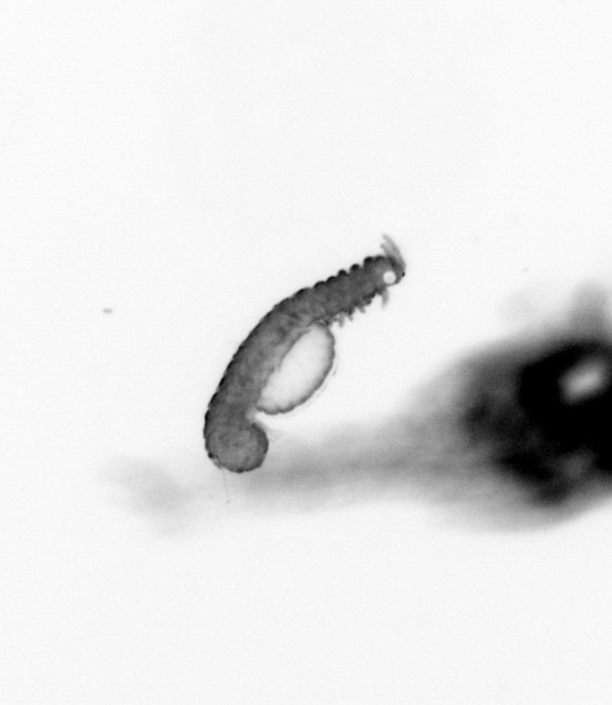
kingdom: Animalia
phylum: Annelida
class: Polychaeta
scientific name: Polychaeta
